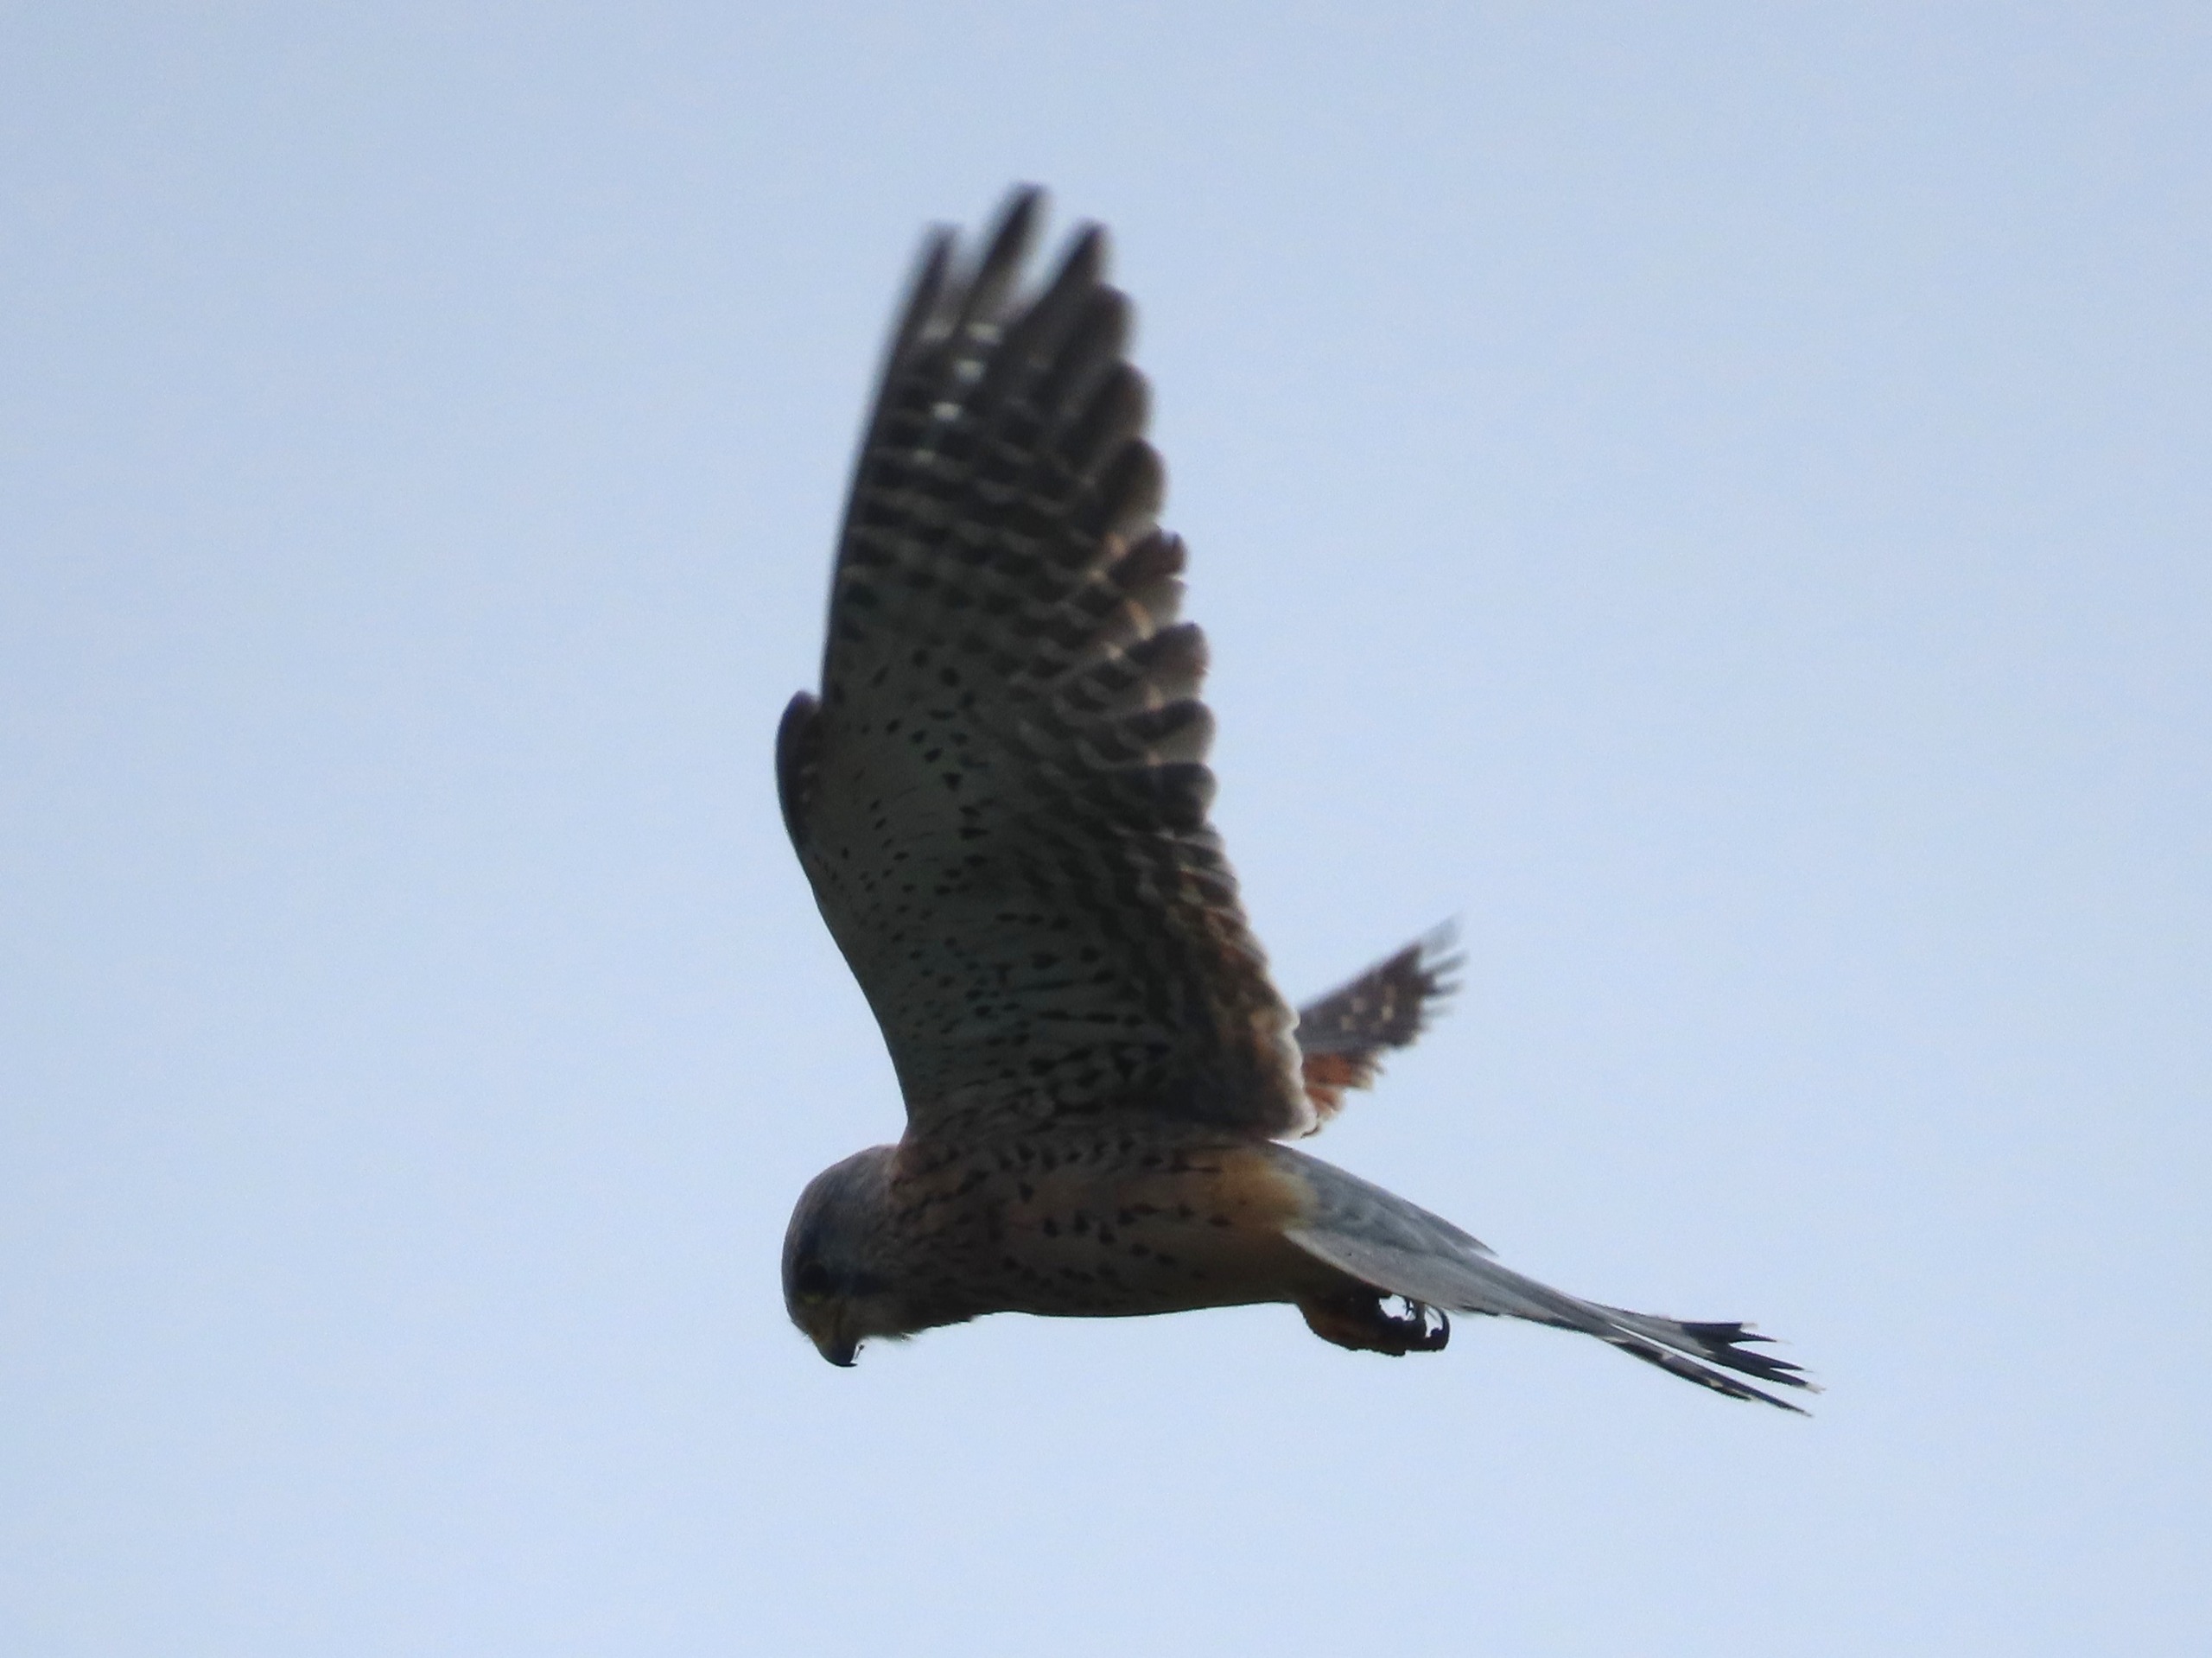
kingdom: Animalia
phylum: Chordata
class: Aves
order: Falconiformes
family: Falconidae
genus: Falco
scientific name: Falco tinnunculus
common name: Tårnfalk
